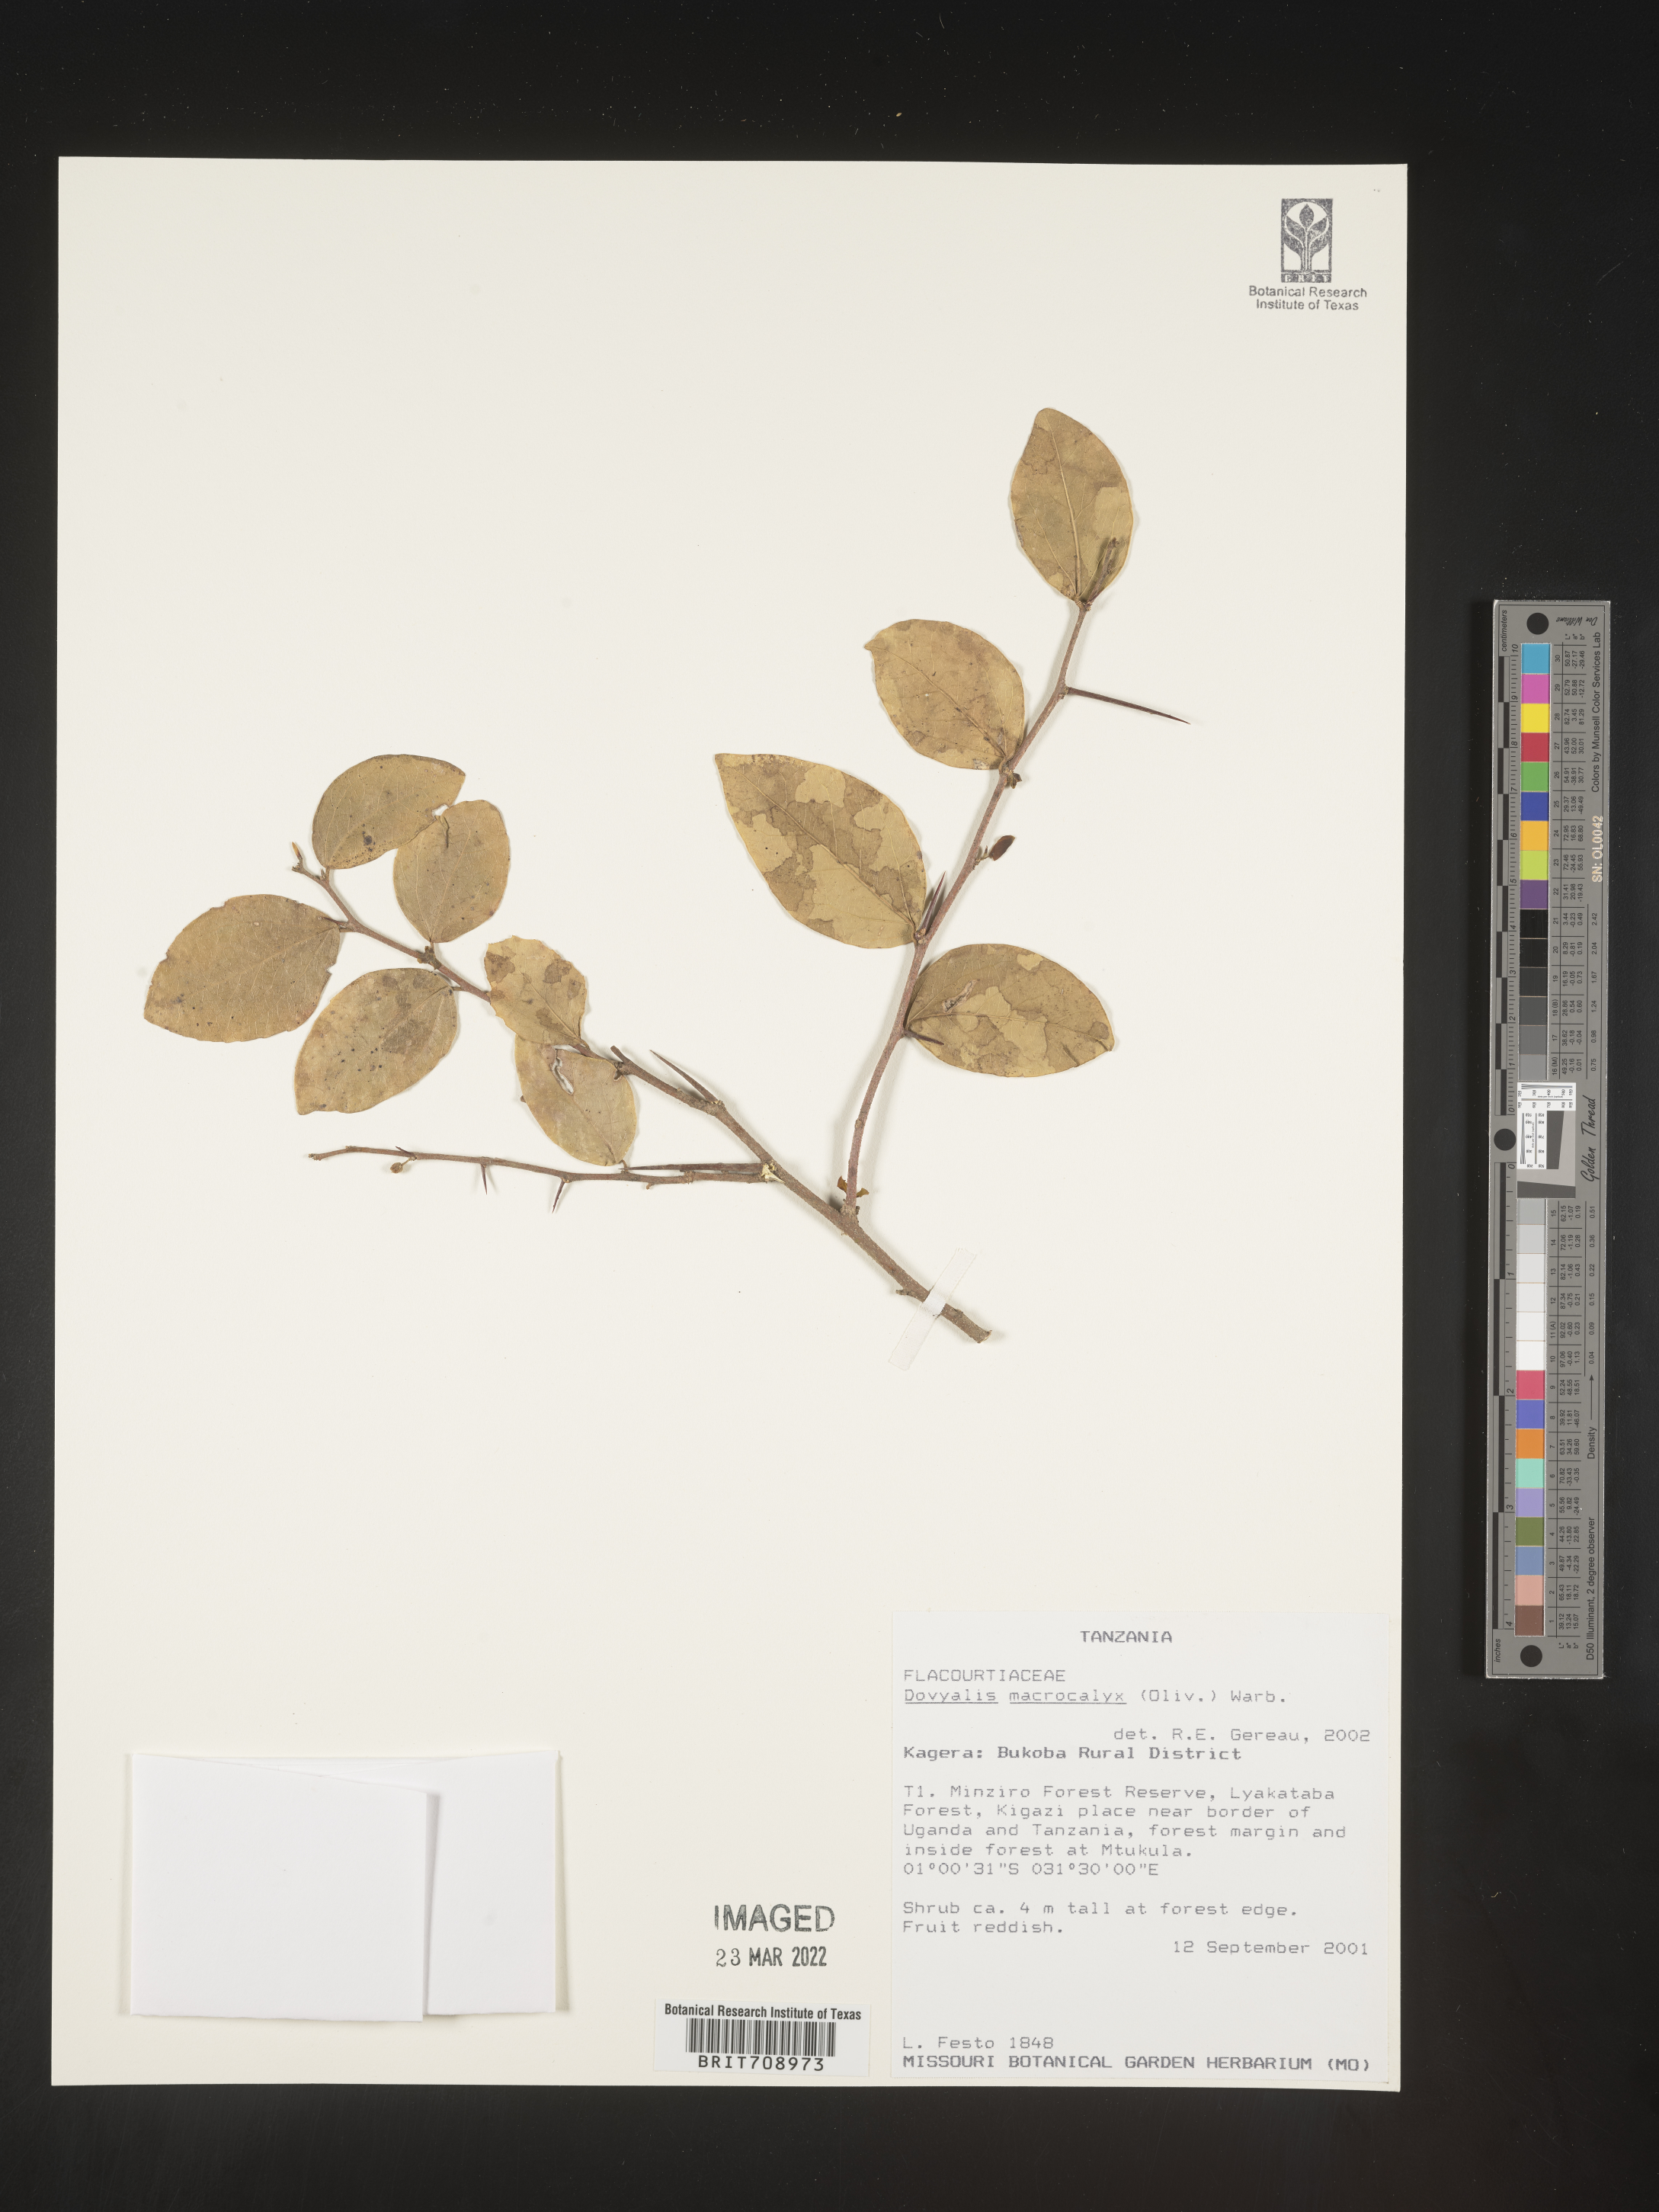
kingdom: Plantae
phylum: Tracheophyta
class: Magnoliopsida
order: Malpighiales
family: Salicaceae
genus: Dovyalis
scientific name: Dovyalis
